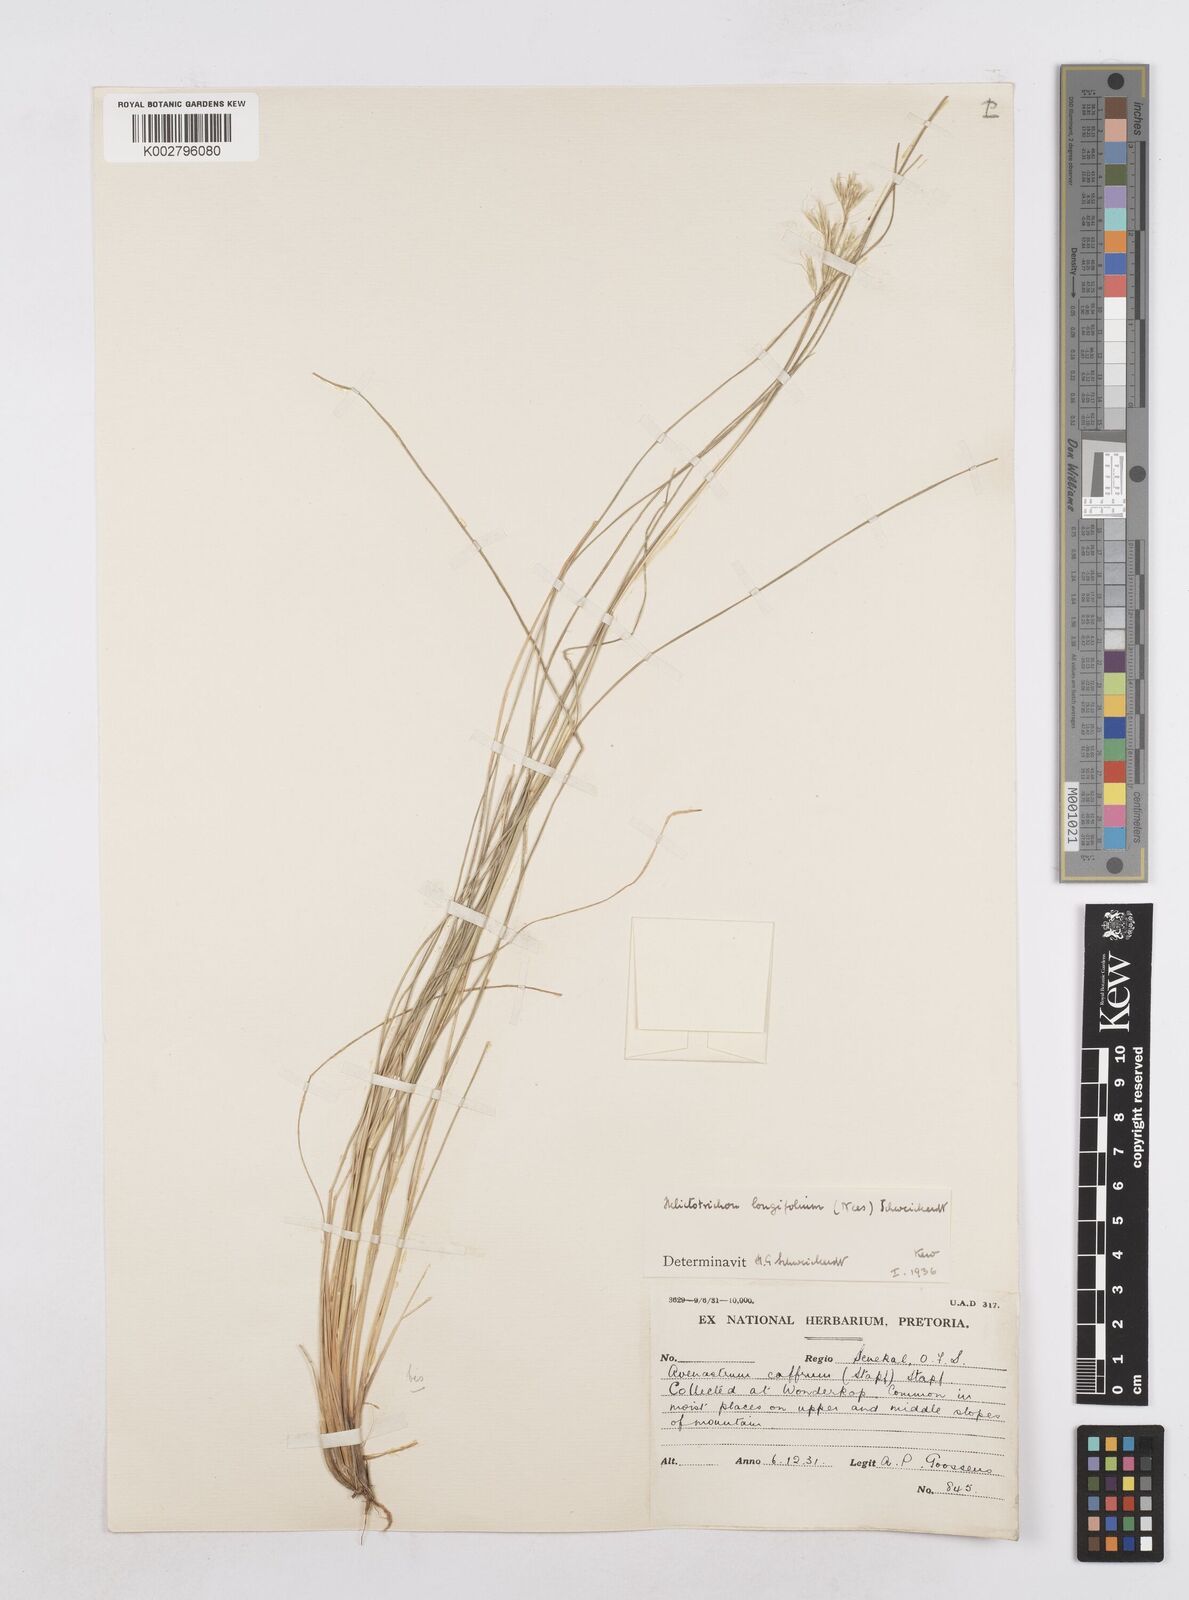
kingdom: Plantae
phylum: Tracheophyta
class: Liliopsida
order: Poales
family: Poaceae
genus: Trisetopsis
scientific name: Trisetopsis longifolia
